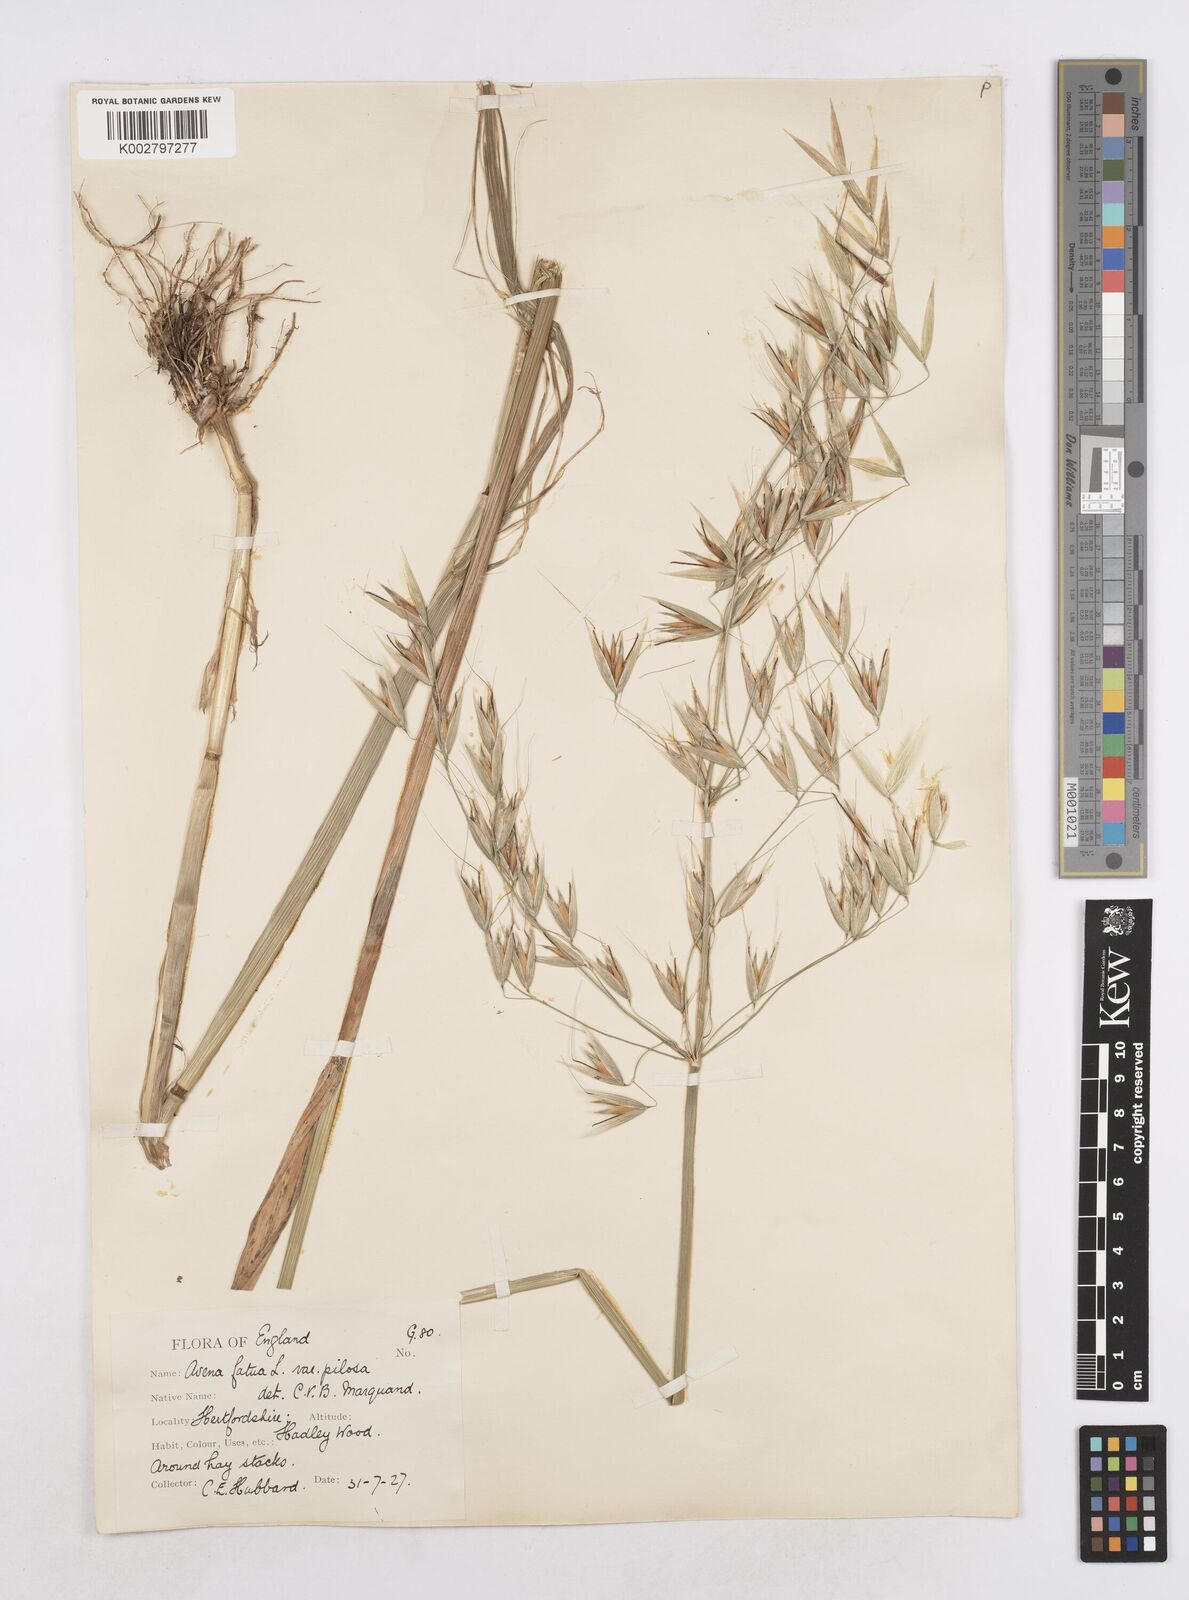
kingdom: Plantae
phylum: Tracheophyta
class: Liliopsida
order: Poales
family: Poaceae
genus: Avena
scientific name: Avena fatua
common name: Wild oat
